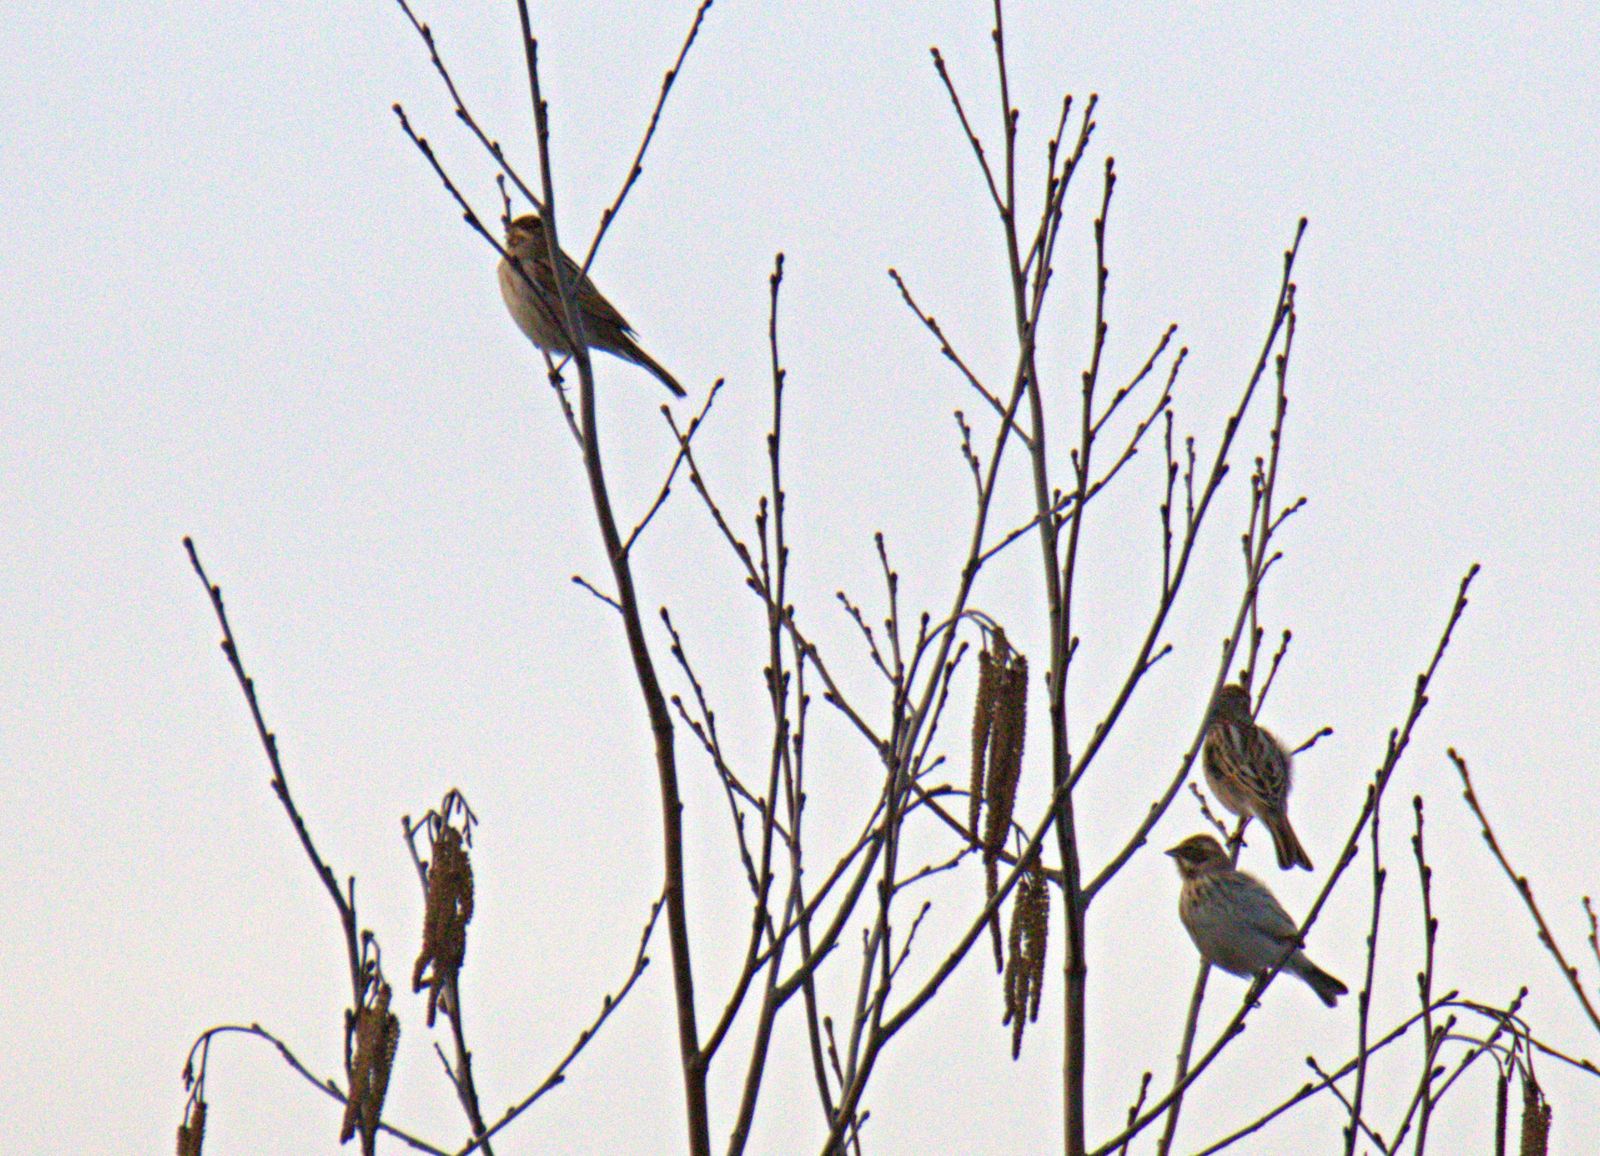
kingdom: Animalia
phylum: Chordata
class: Aves
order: Passeriformes
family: Emberizidae
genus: Emberiza
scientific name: Emberiza schoeniclus
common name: Reed bunting
